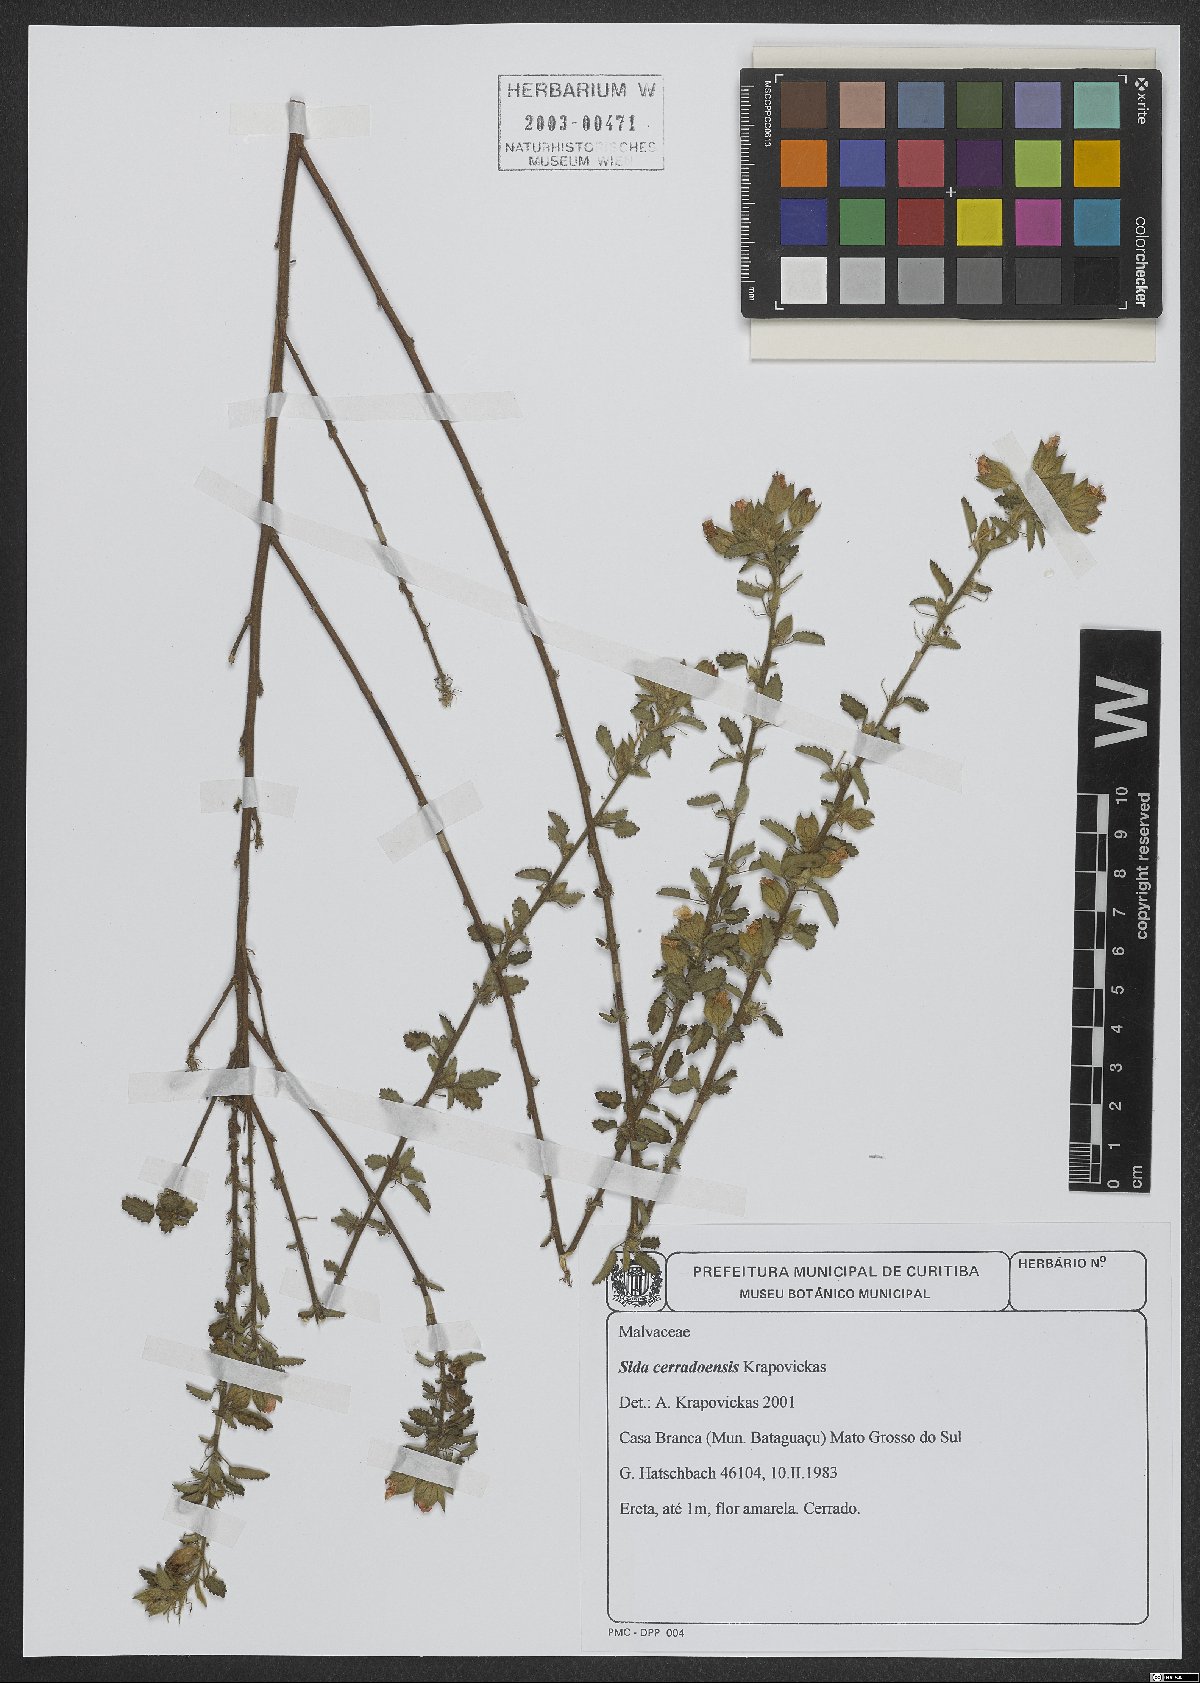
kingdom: Plantae
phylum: Tracheophyta
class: Magnoliopsida
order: Malvales
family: Malvaceae
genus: Sida
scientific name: Sida cerradoensis
